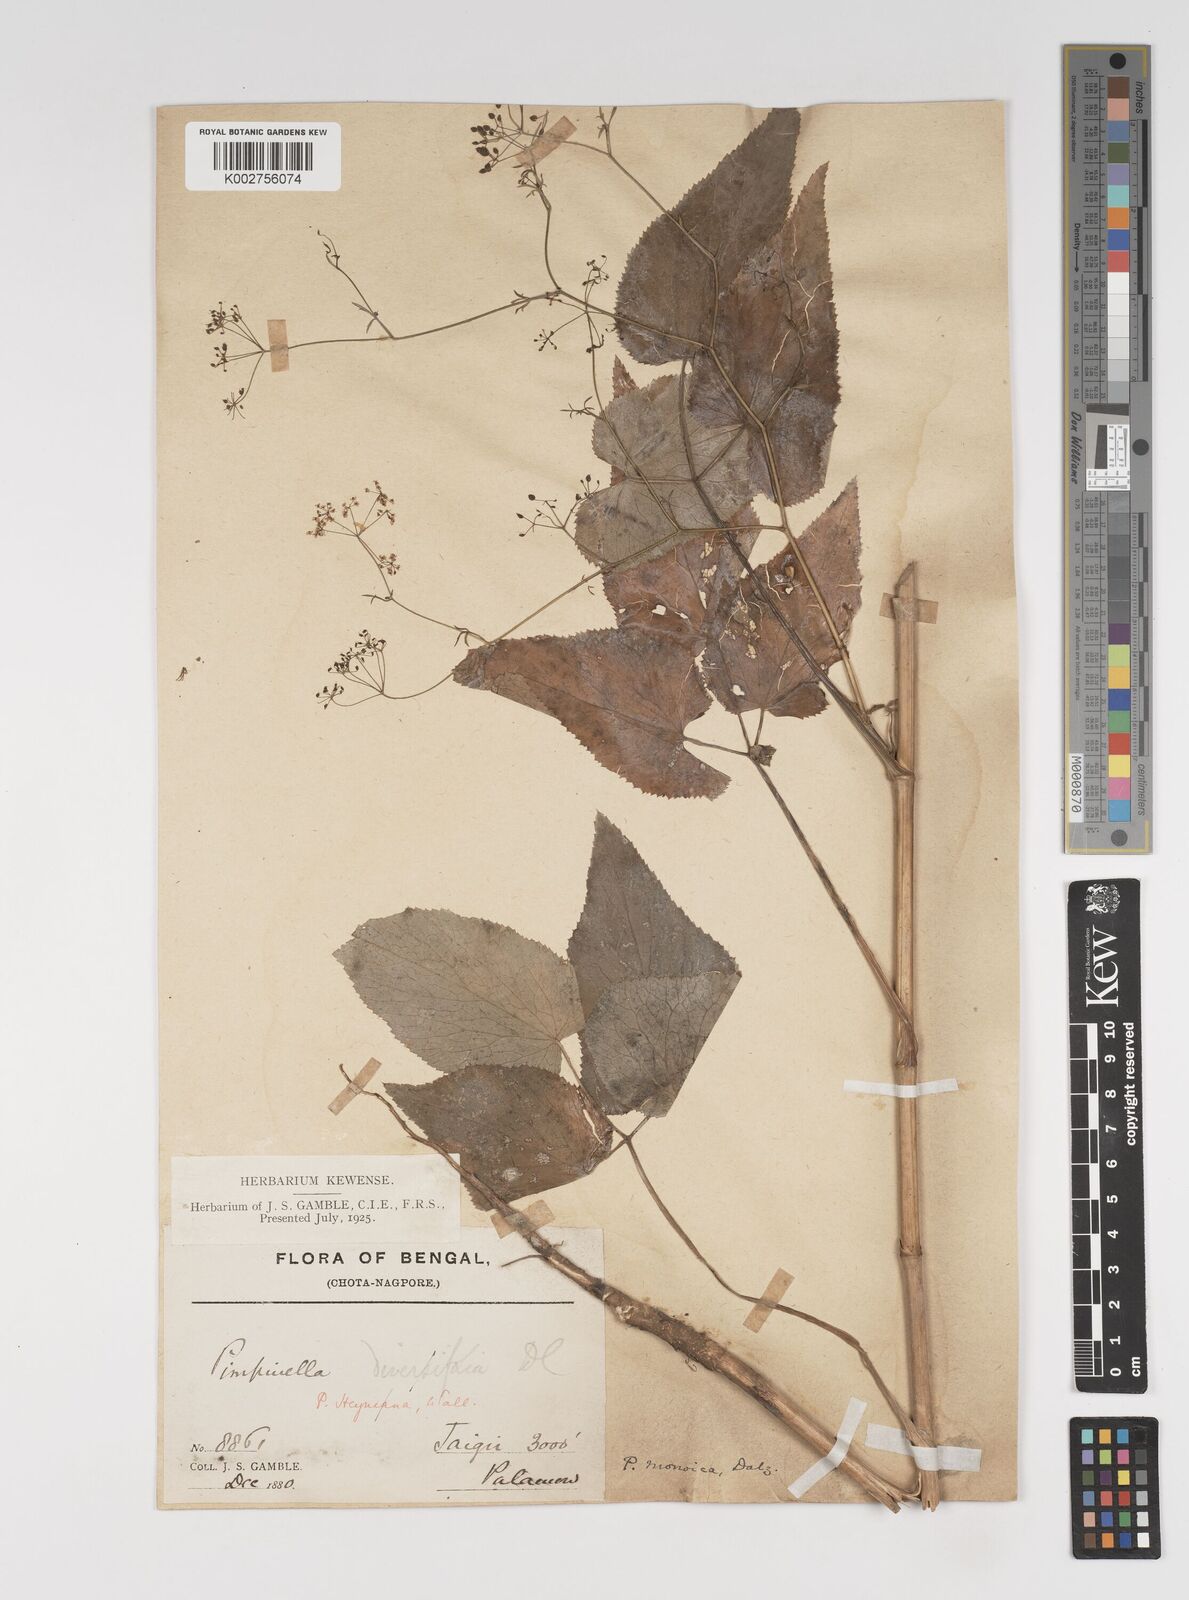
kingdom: Plantae
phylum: Tracheophyta
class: Magnoliopsida
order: Apiales
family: Apiaceae
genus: Pimpinella
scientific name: Pimpinella diversifolia
